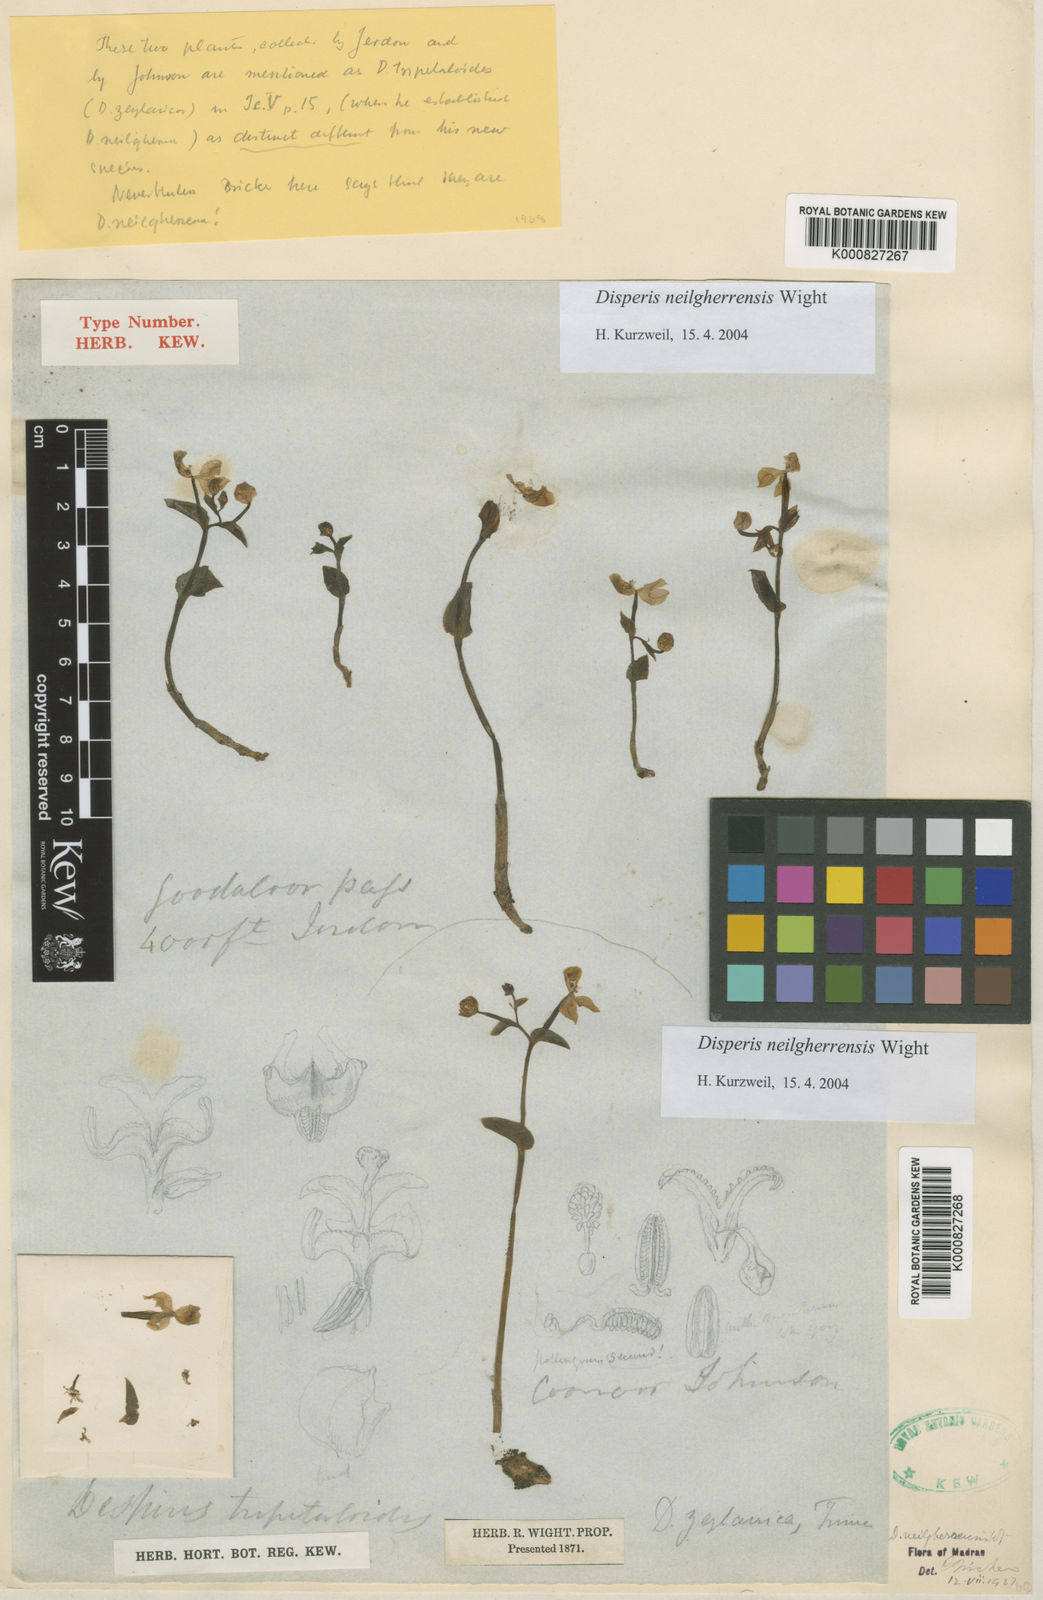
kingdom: Plantae
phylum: Tracheophyta
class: Liliopsida
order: Asparagales
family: Orchidaceae
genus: Disperis
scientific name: Disperis neilgherrensis
